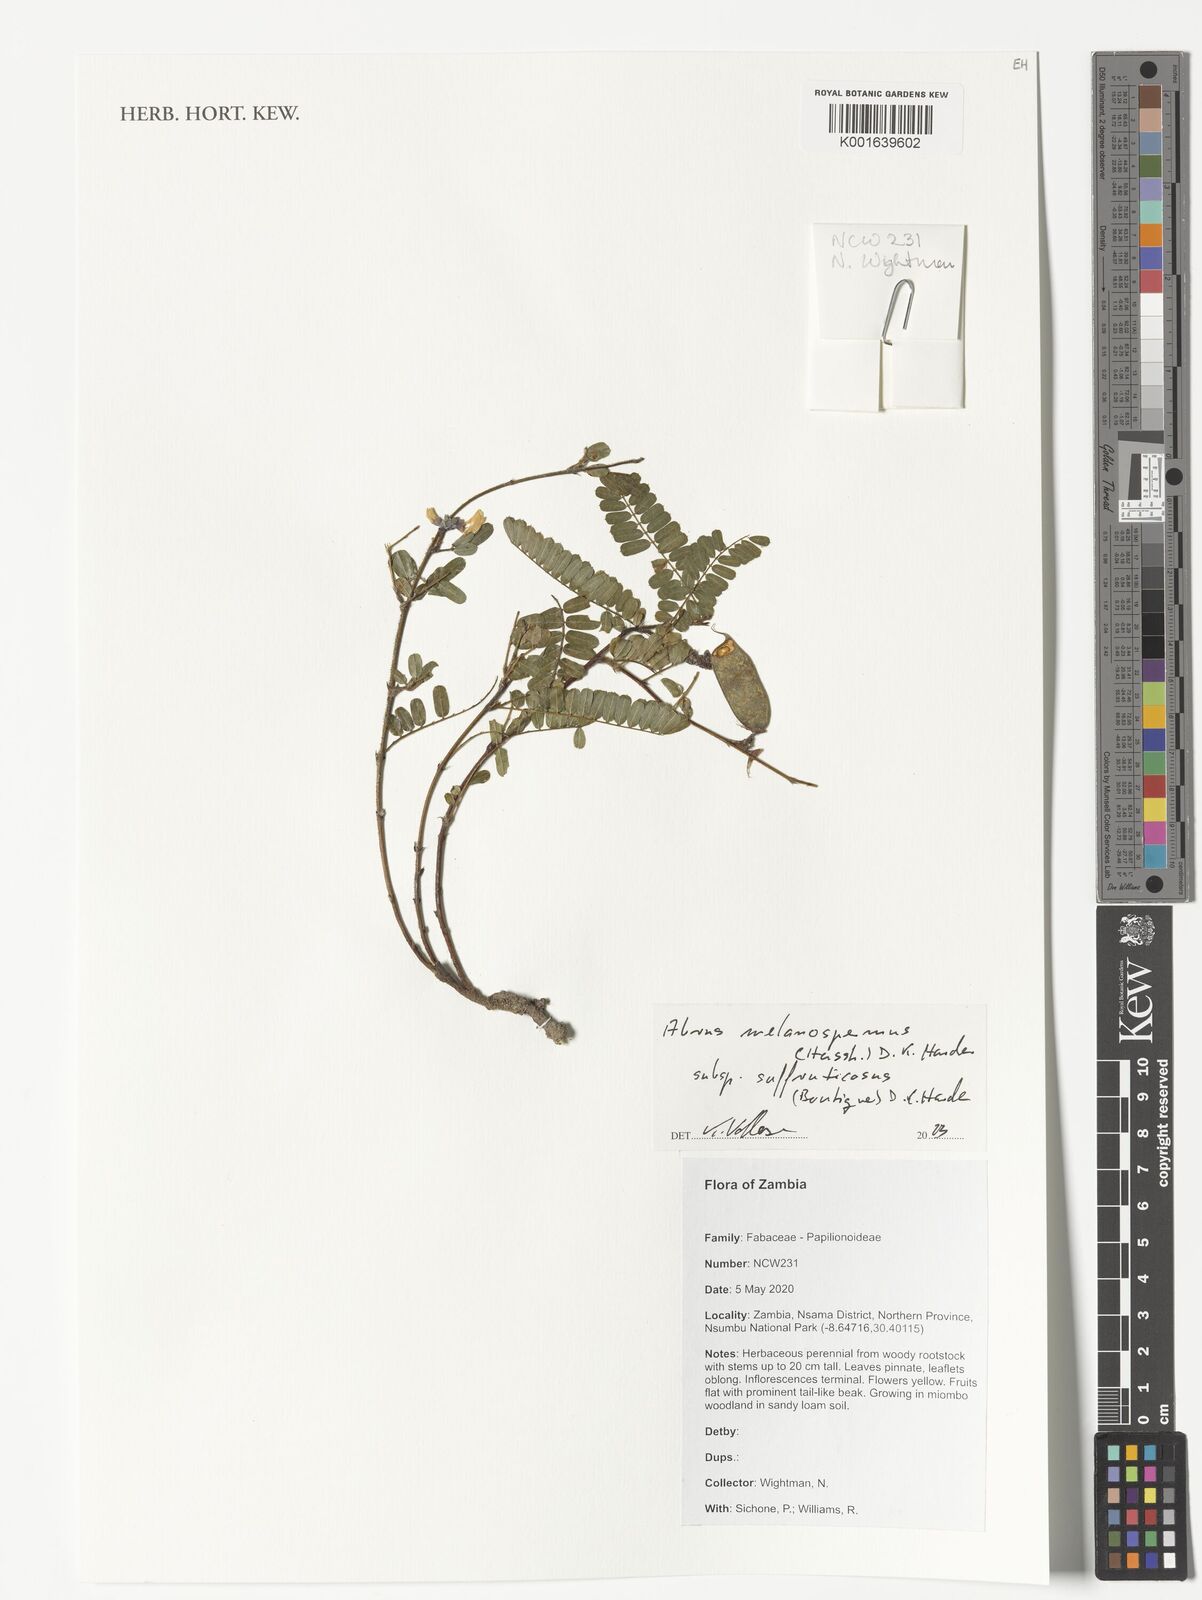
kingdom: Plantae
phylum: Tracheophyta
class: Magnoliopsida
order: Fabales
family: Fabaceae
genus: Abrus
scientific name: Abrus melanospermus
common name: Licorice-root
